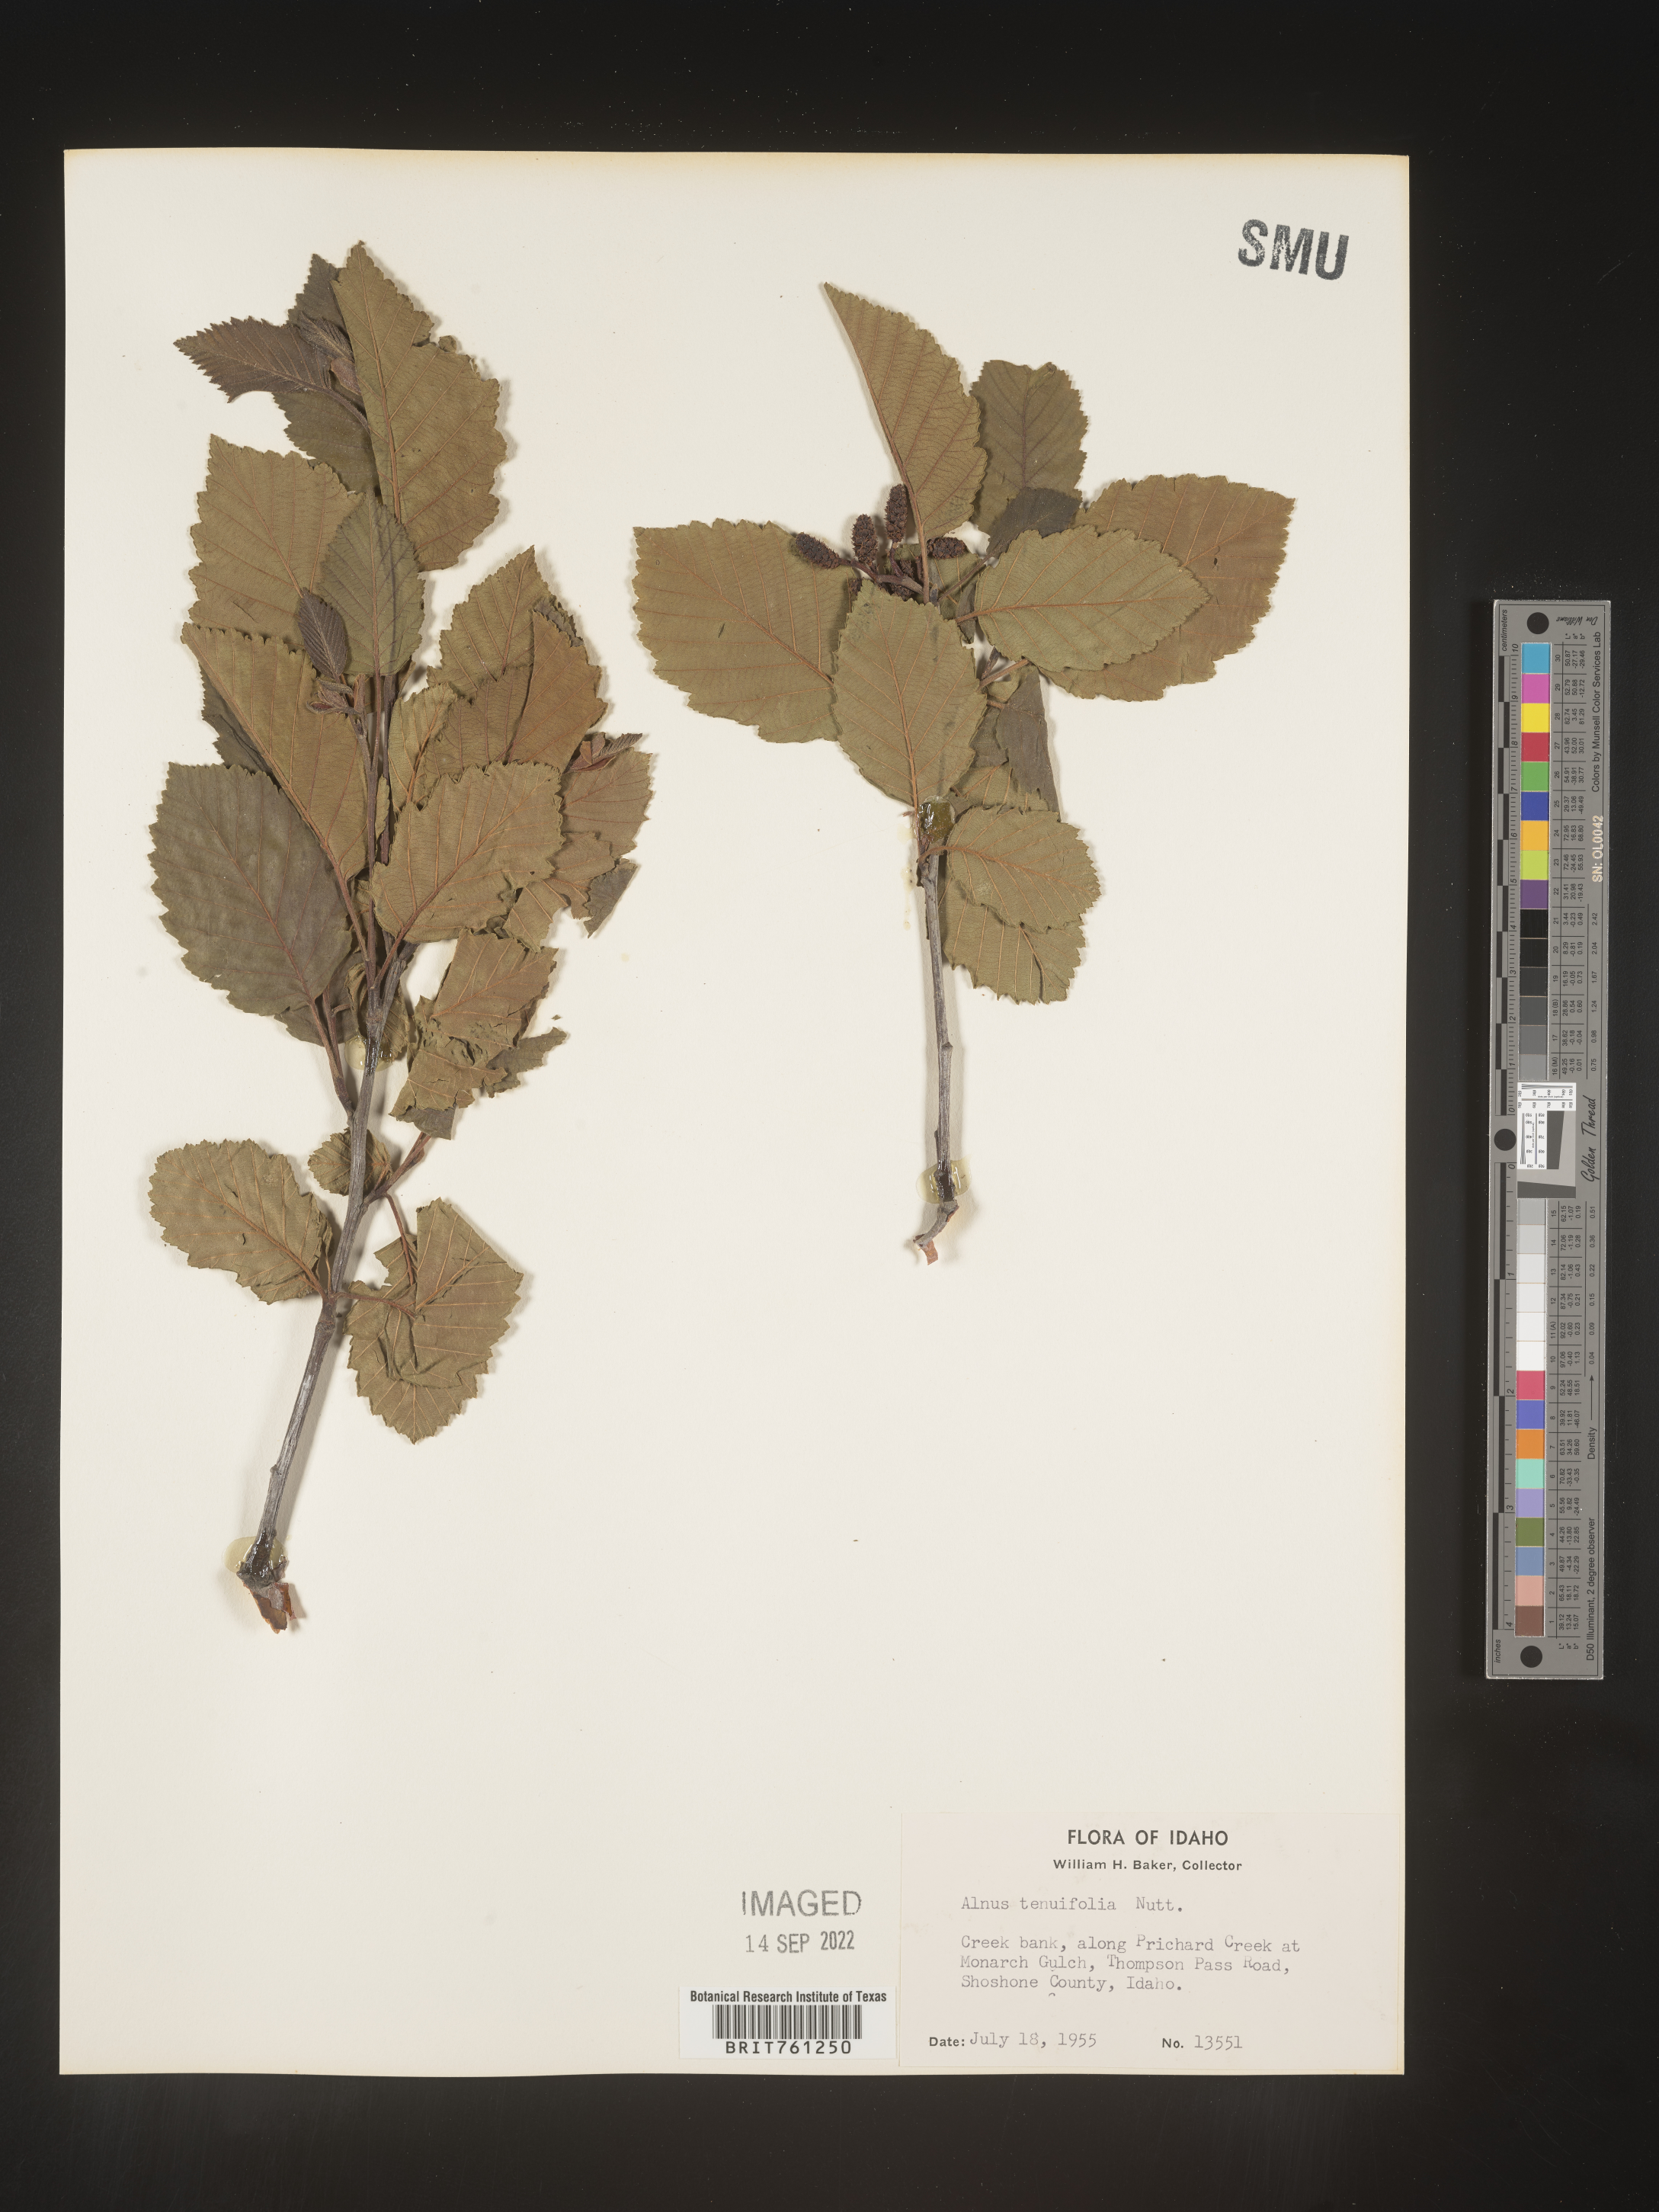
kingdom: Plantae
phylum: Tracheophyta
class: Magnoliopsida
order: Fagales
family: Betulaceae
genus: Alnus
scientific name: Alnus incana
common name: Grey alder
